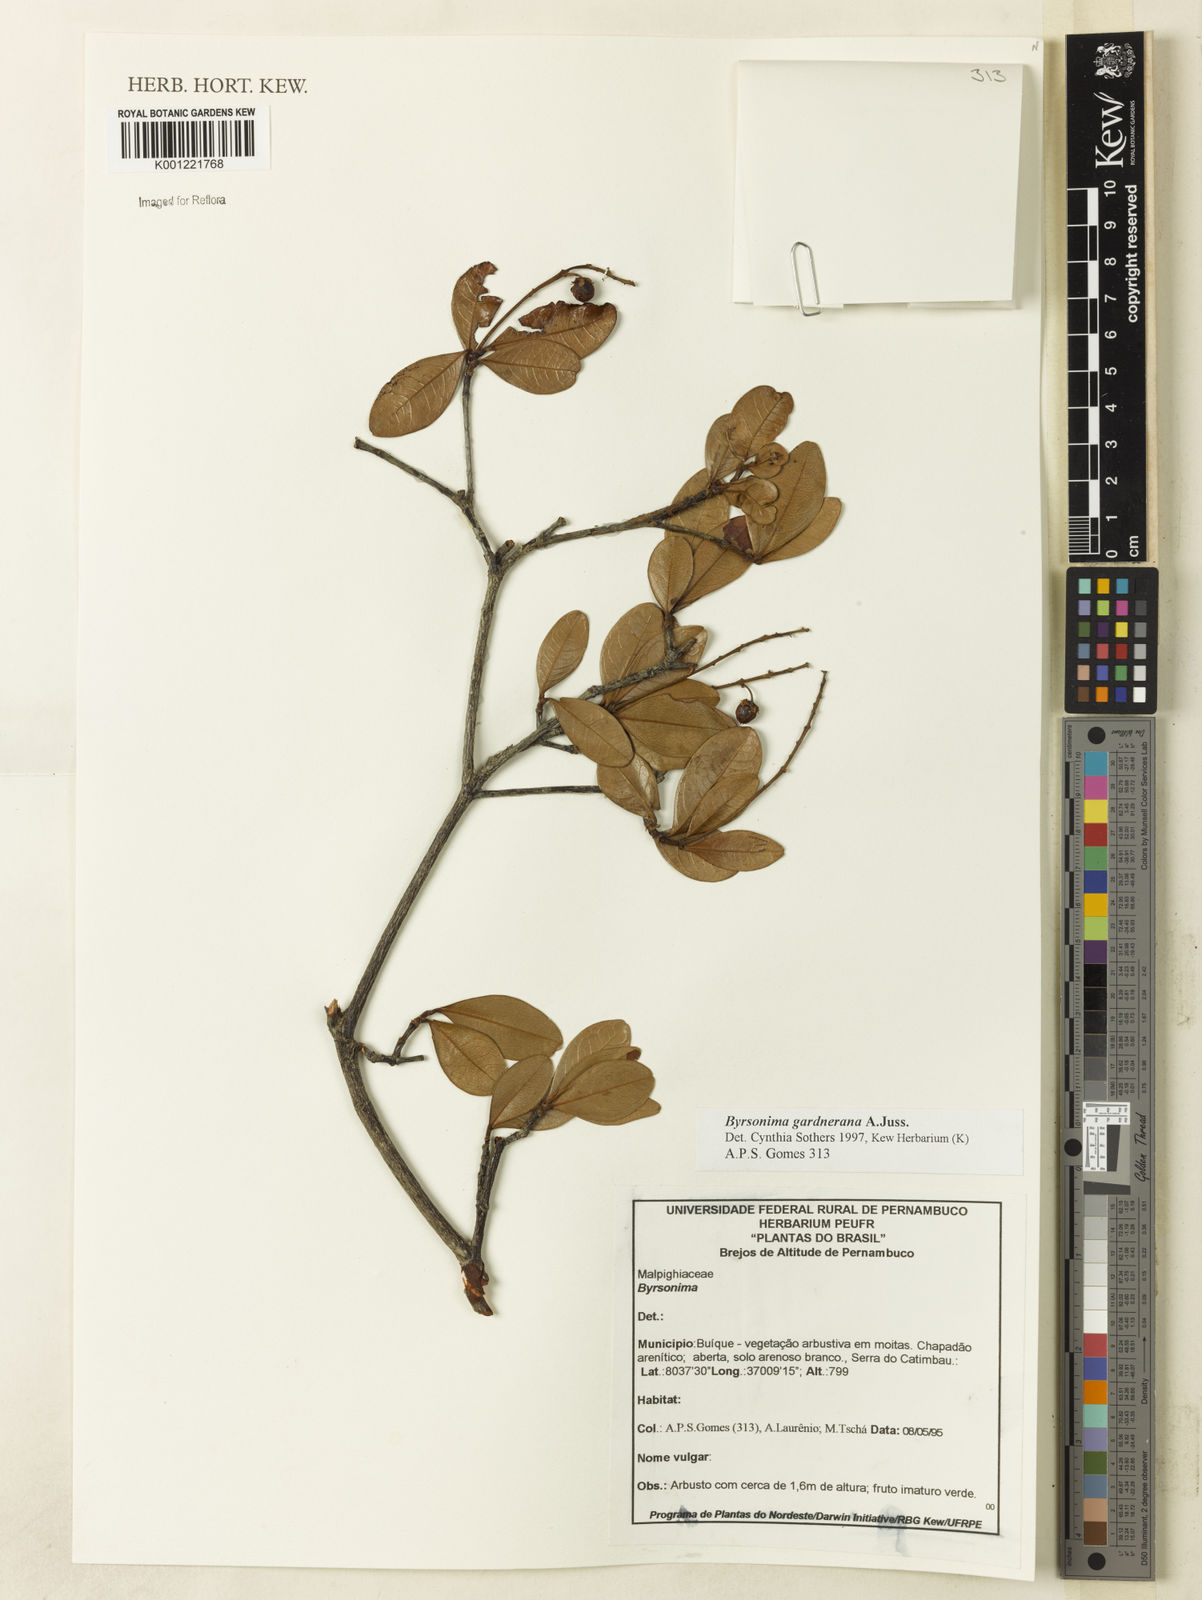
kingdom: Plantae
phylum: Tracheophyta
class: Magnoliopsida
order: Malpighiales
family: Malpighiaceae
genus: Byrsonima
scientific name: Byrsonima gardneriana
